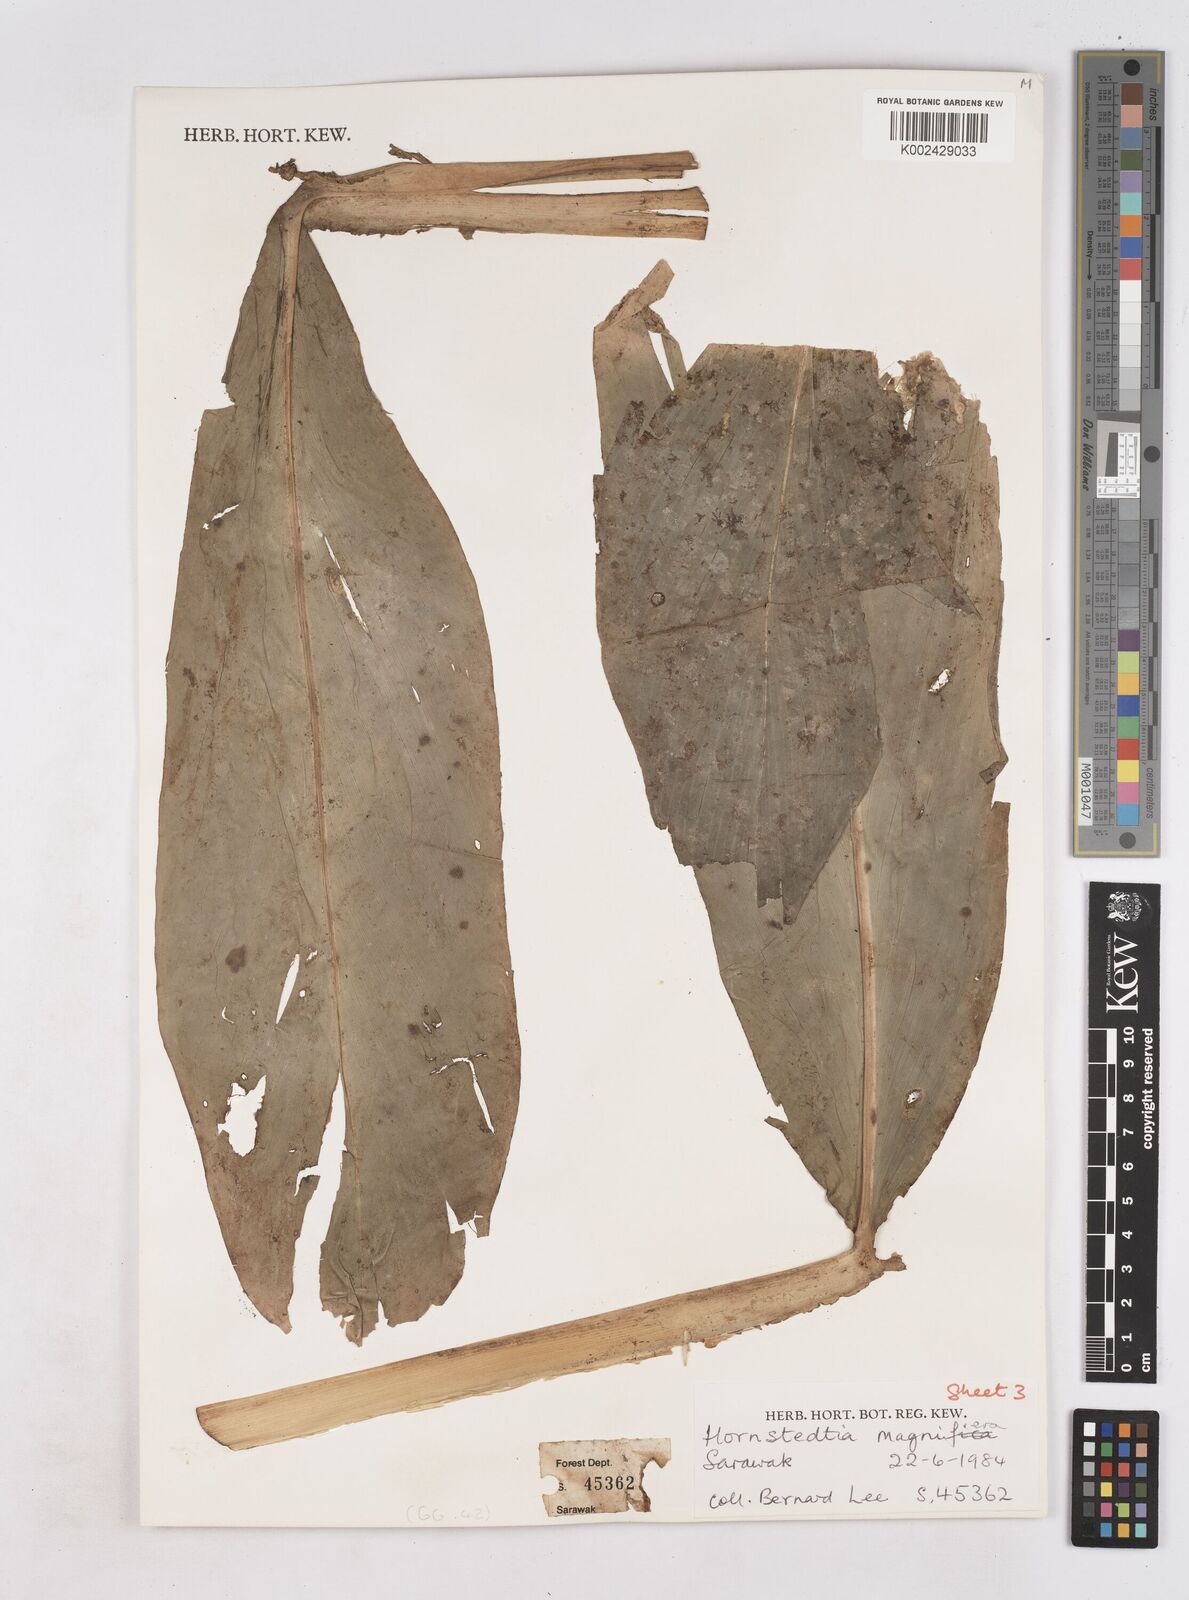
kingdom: Plantae
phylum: Tracheophyta
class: Liliopsida
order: Zingiberales
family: Zingiberaceae
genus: Zingiber
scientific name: Zingiber longipedunculatum
